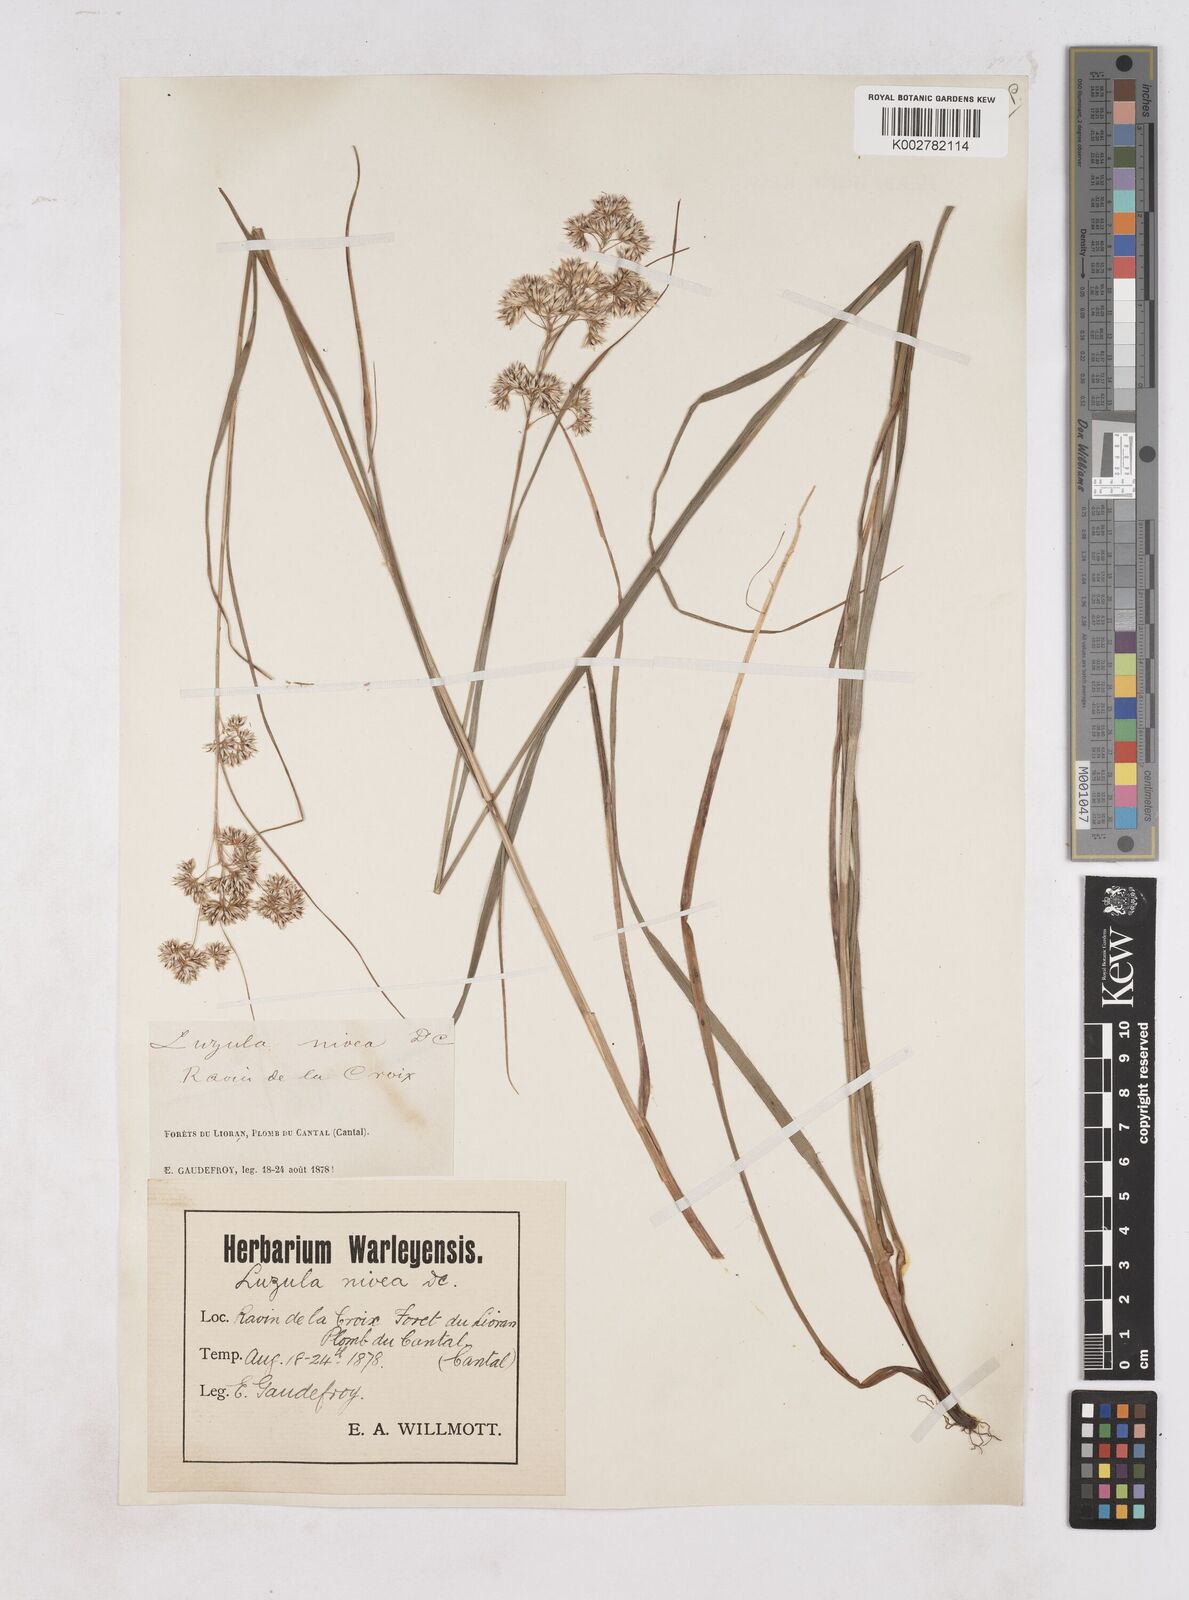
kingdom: Plantae
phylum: Tracheophyta
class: Liliopsida
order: Poales
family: Juncaceae
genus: Luzula
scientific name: Luzula nivea
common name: Snow-white wood-rush
